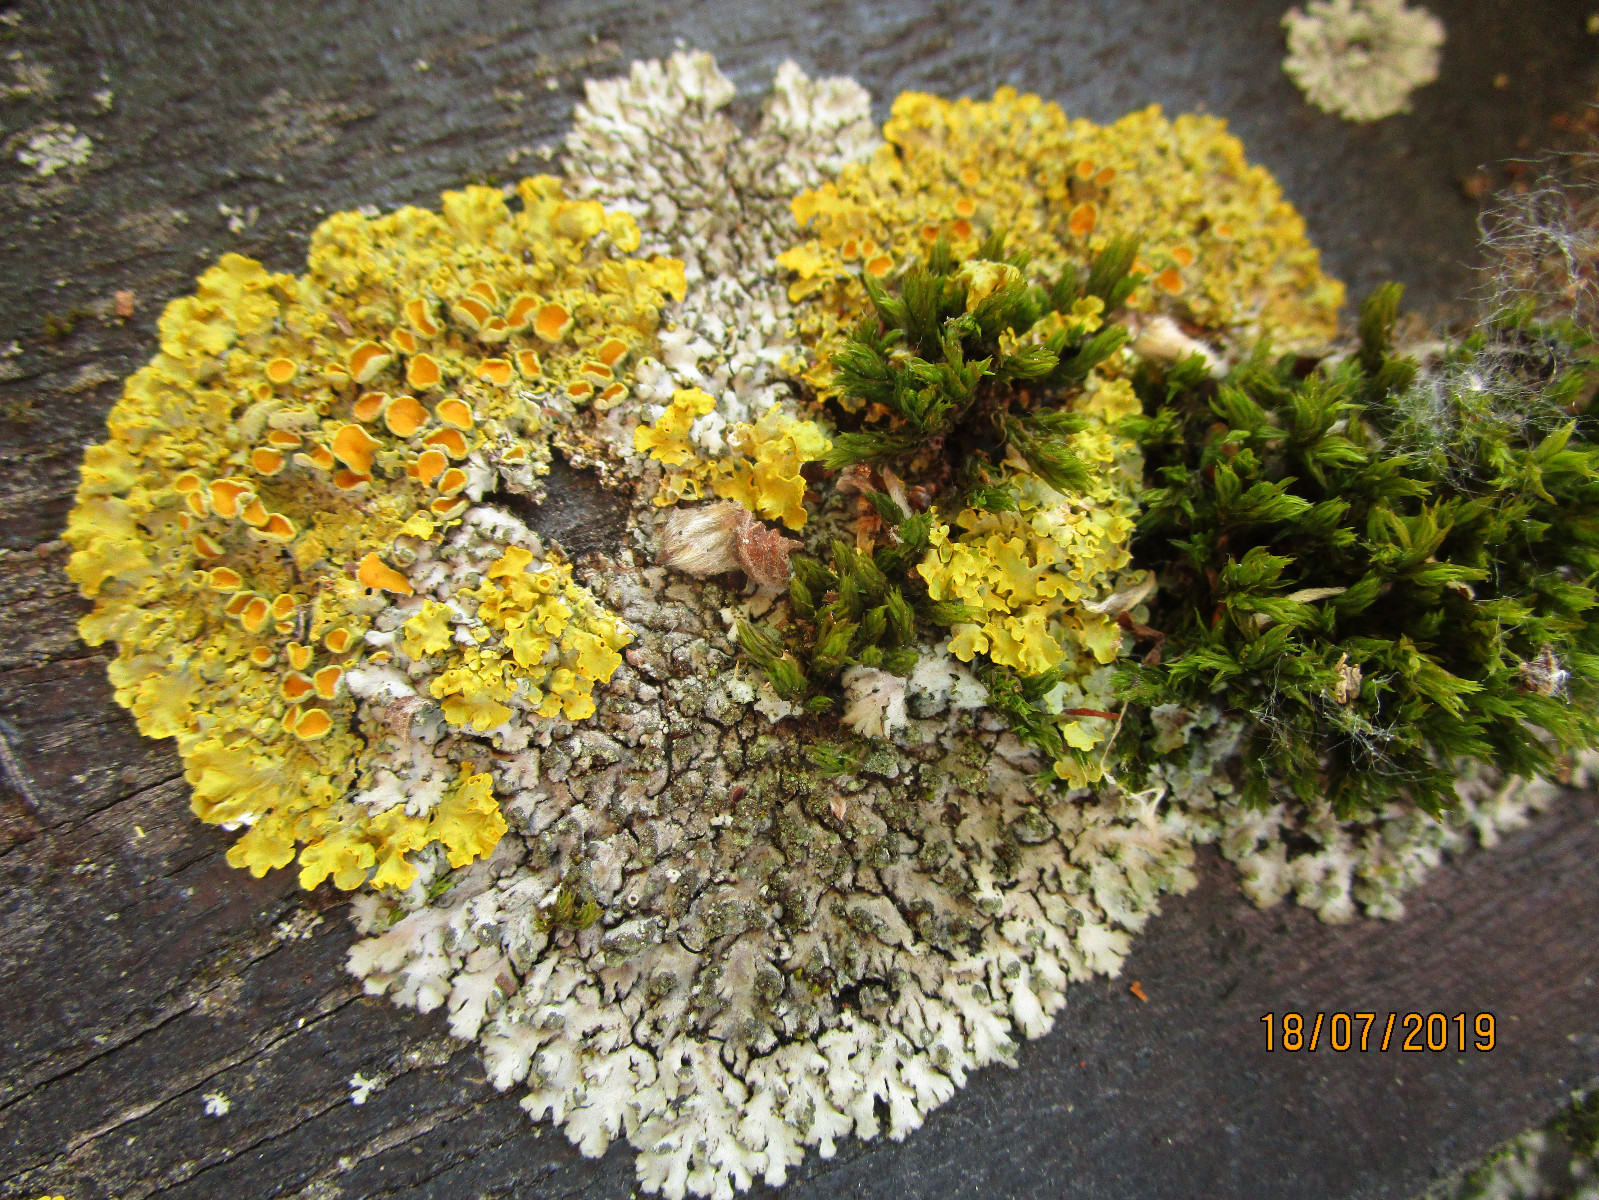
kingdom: Fungi
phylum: Ascomycota
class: Lecanoromycetes
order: Teloschistales
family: Teloschistaceae
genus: Xanthoria
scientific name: Xanthoria parietina
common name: almindelig væggelav
